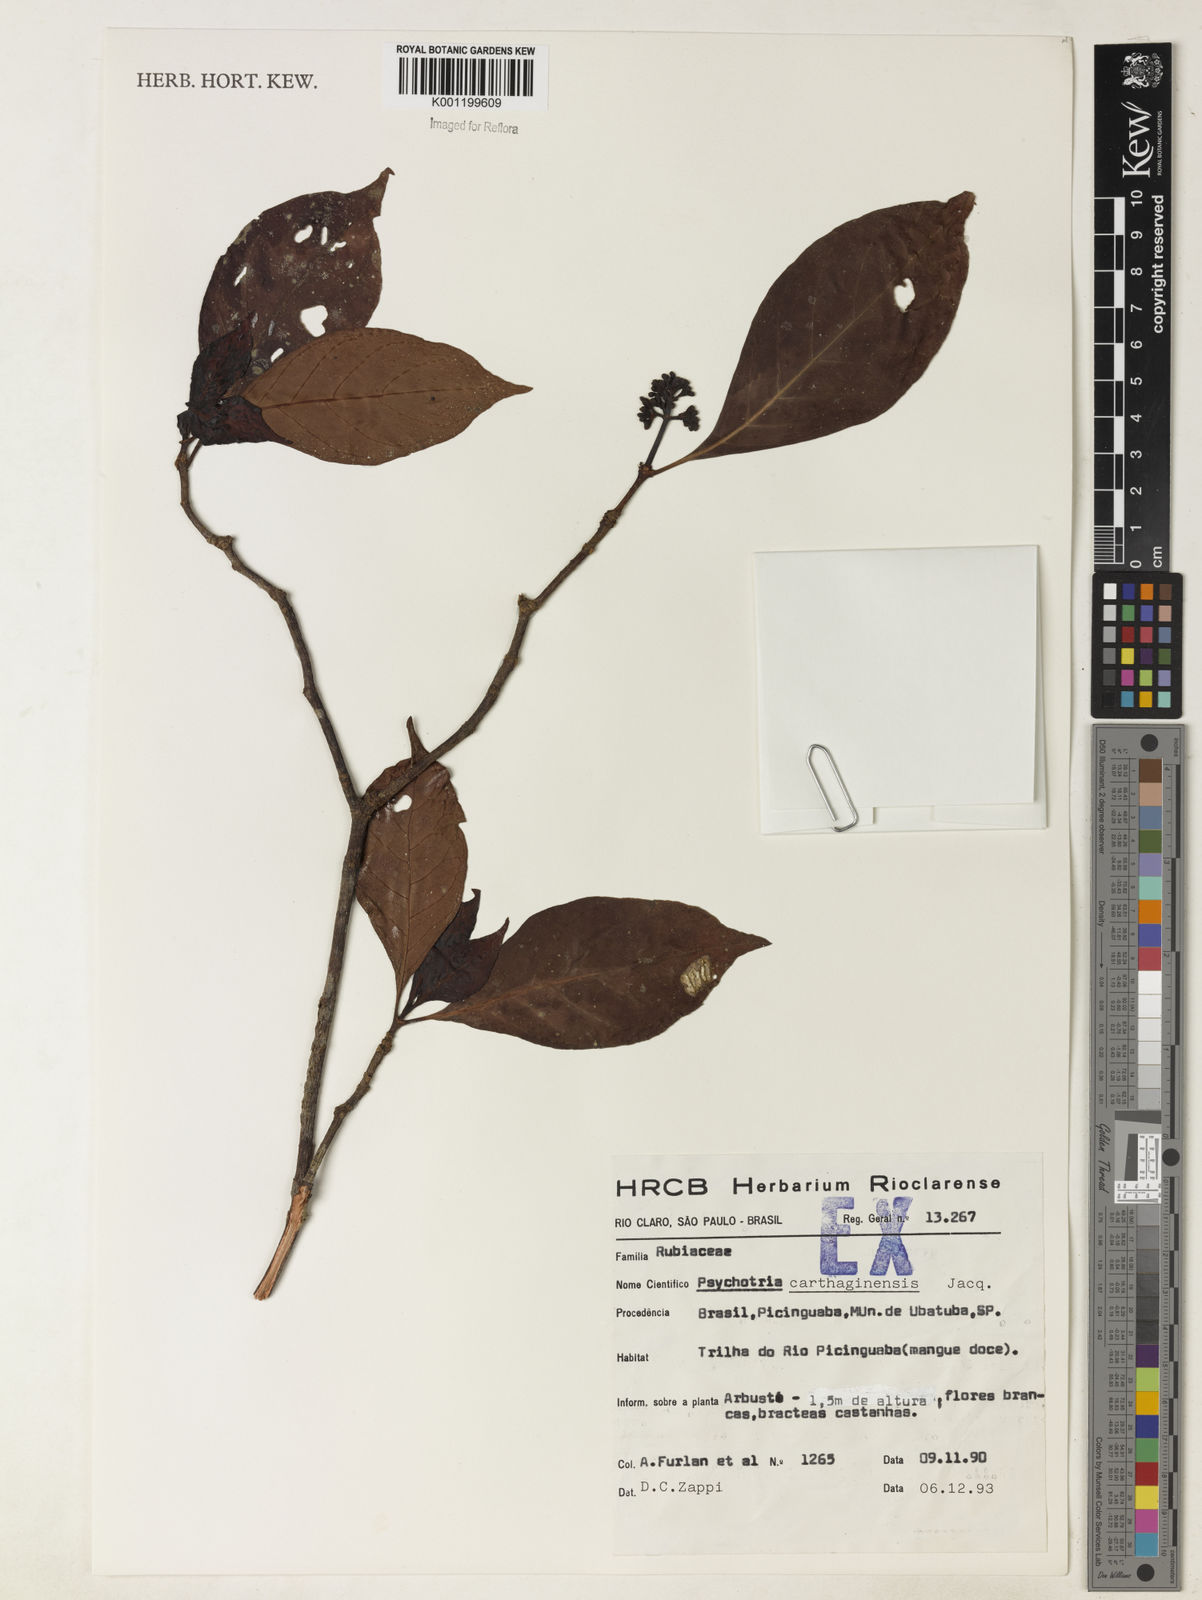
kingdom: Plantae
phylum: Tracheophyta
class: Magnoliopsida
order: Gentianales
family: Rubiaceae
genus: Psychotria
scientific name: Psychotria carthagenensis
